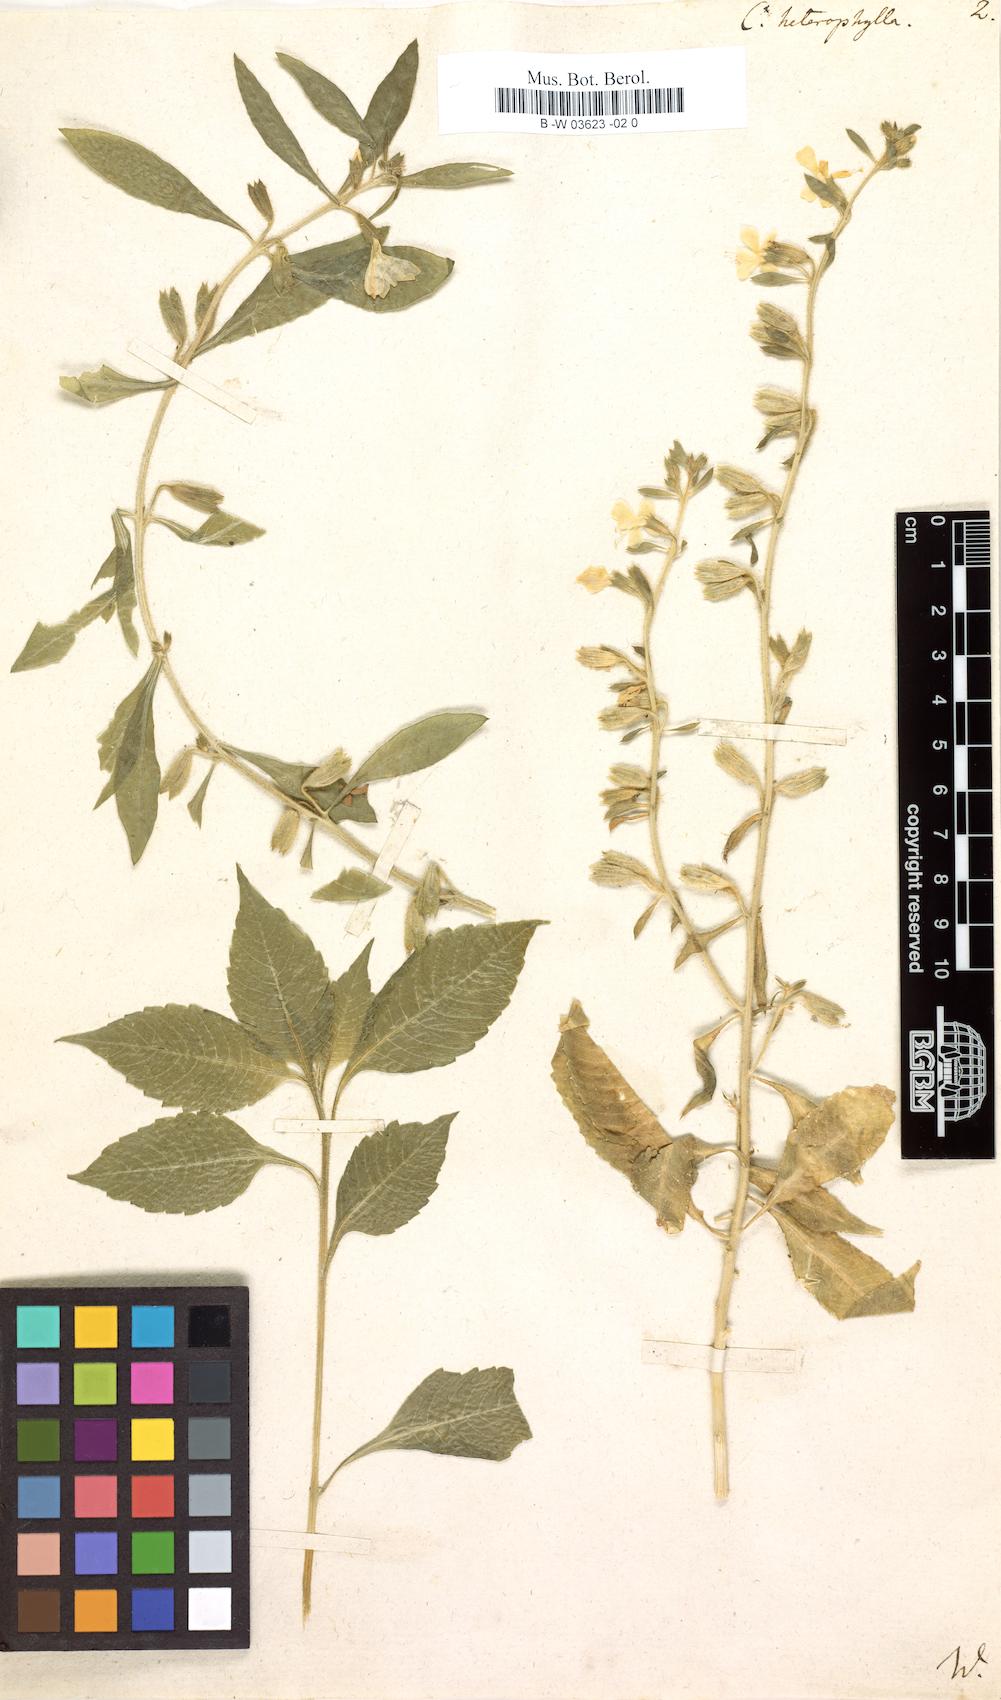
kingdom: Plantae
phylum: Tracheophyta
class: Magnoliopsida
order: Ericales
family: Polemoniaceae
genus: Bonplandia
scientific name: Bonplandia geminiflora
